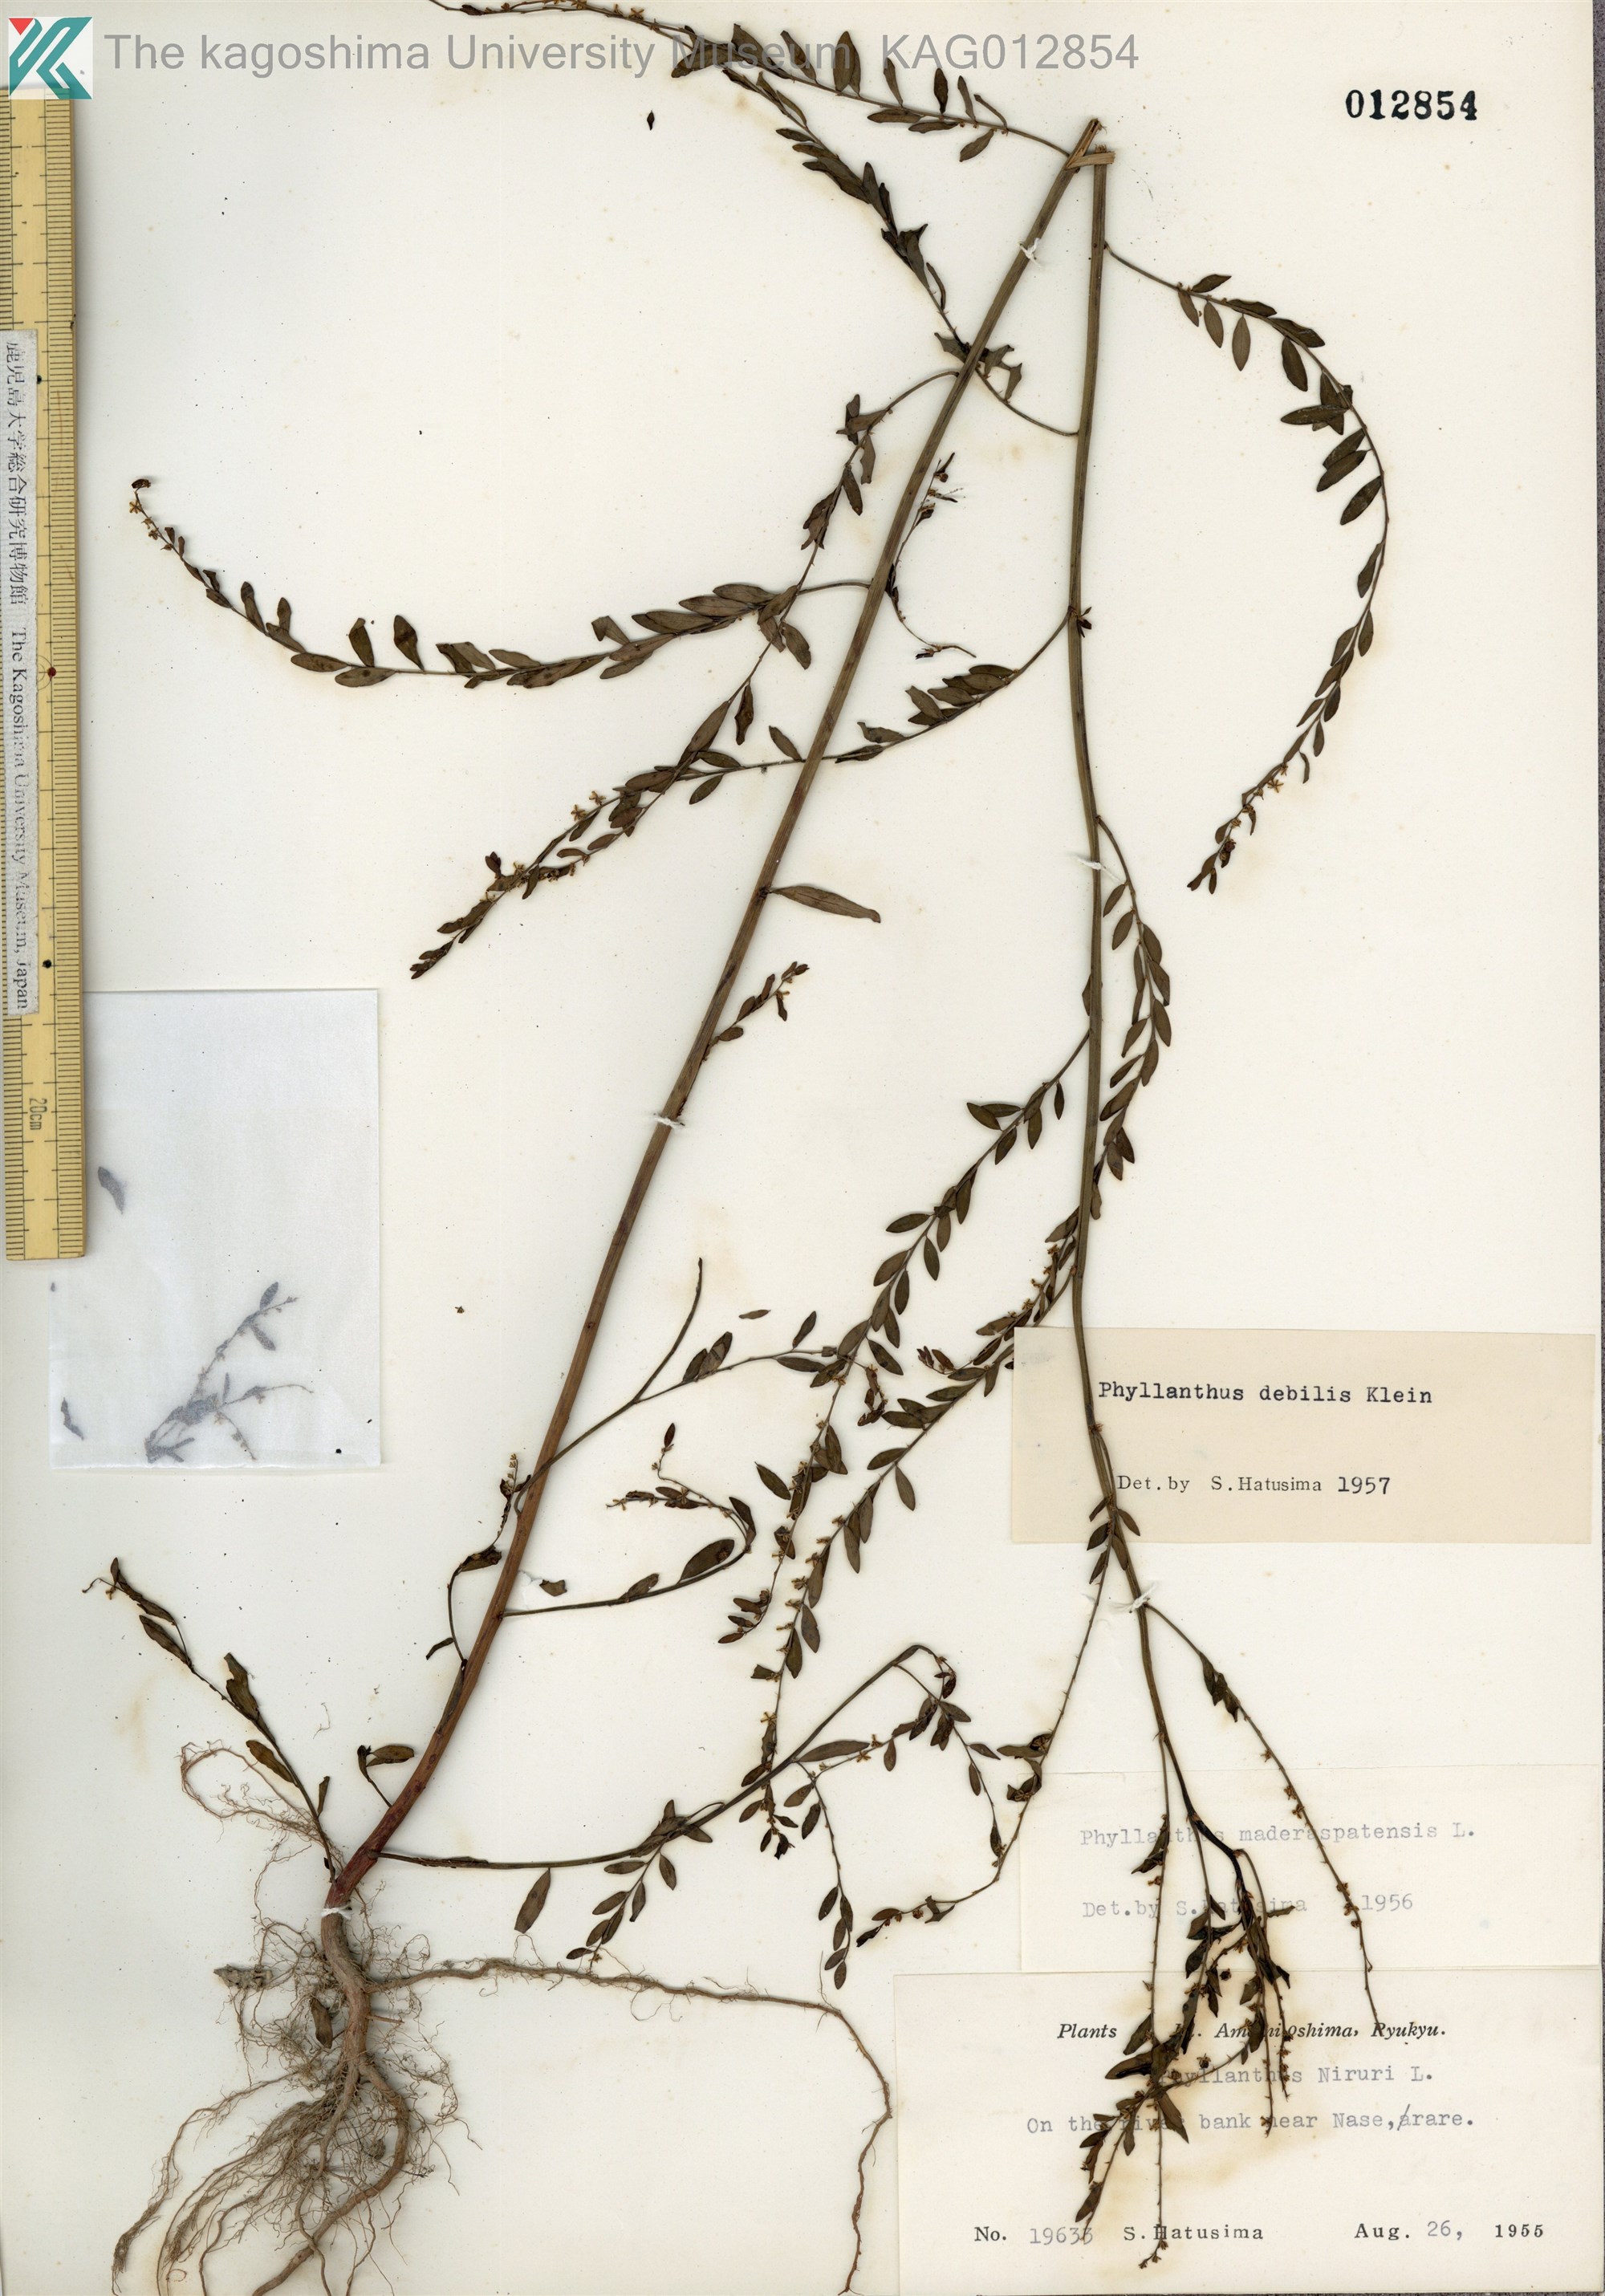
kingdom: Plantae
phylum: Tracheophyta
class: Magnoliopsida
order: Malpighiales
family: Phyllanthaceae
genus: Phyllanthus
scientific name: Phyllanthus debilis
